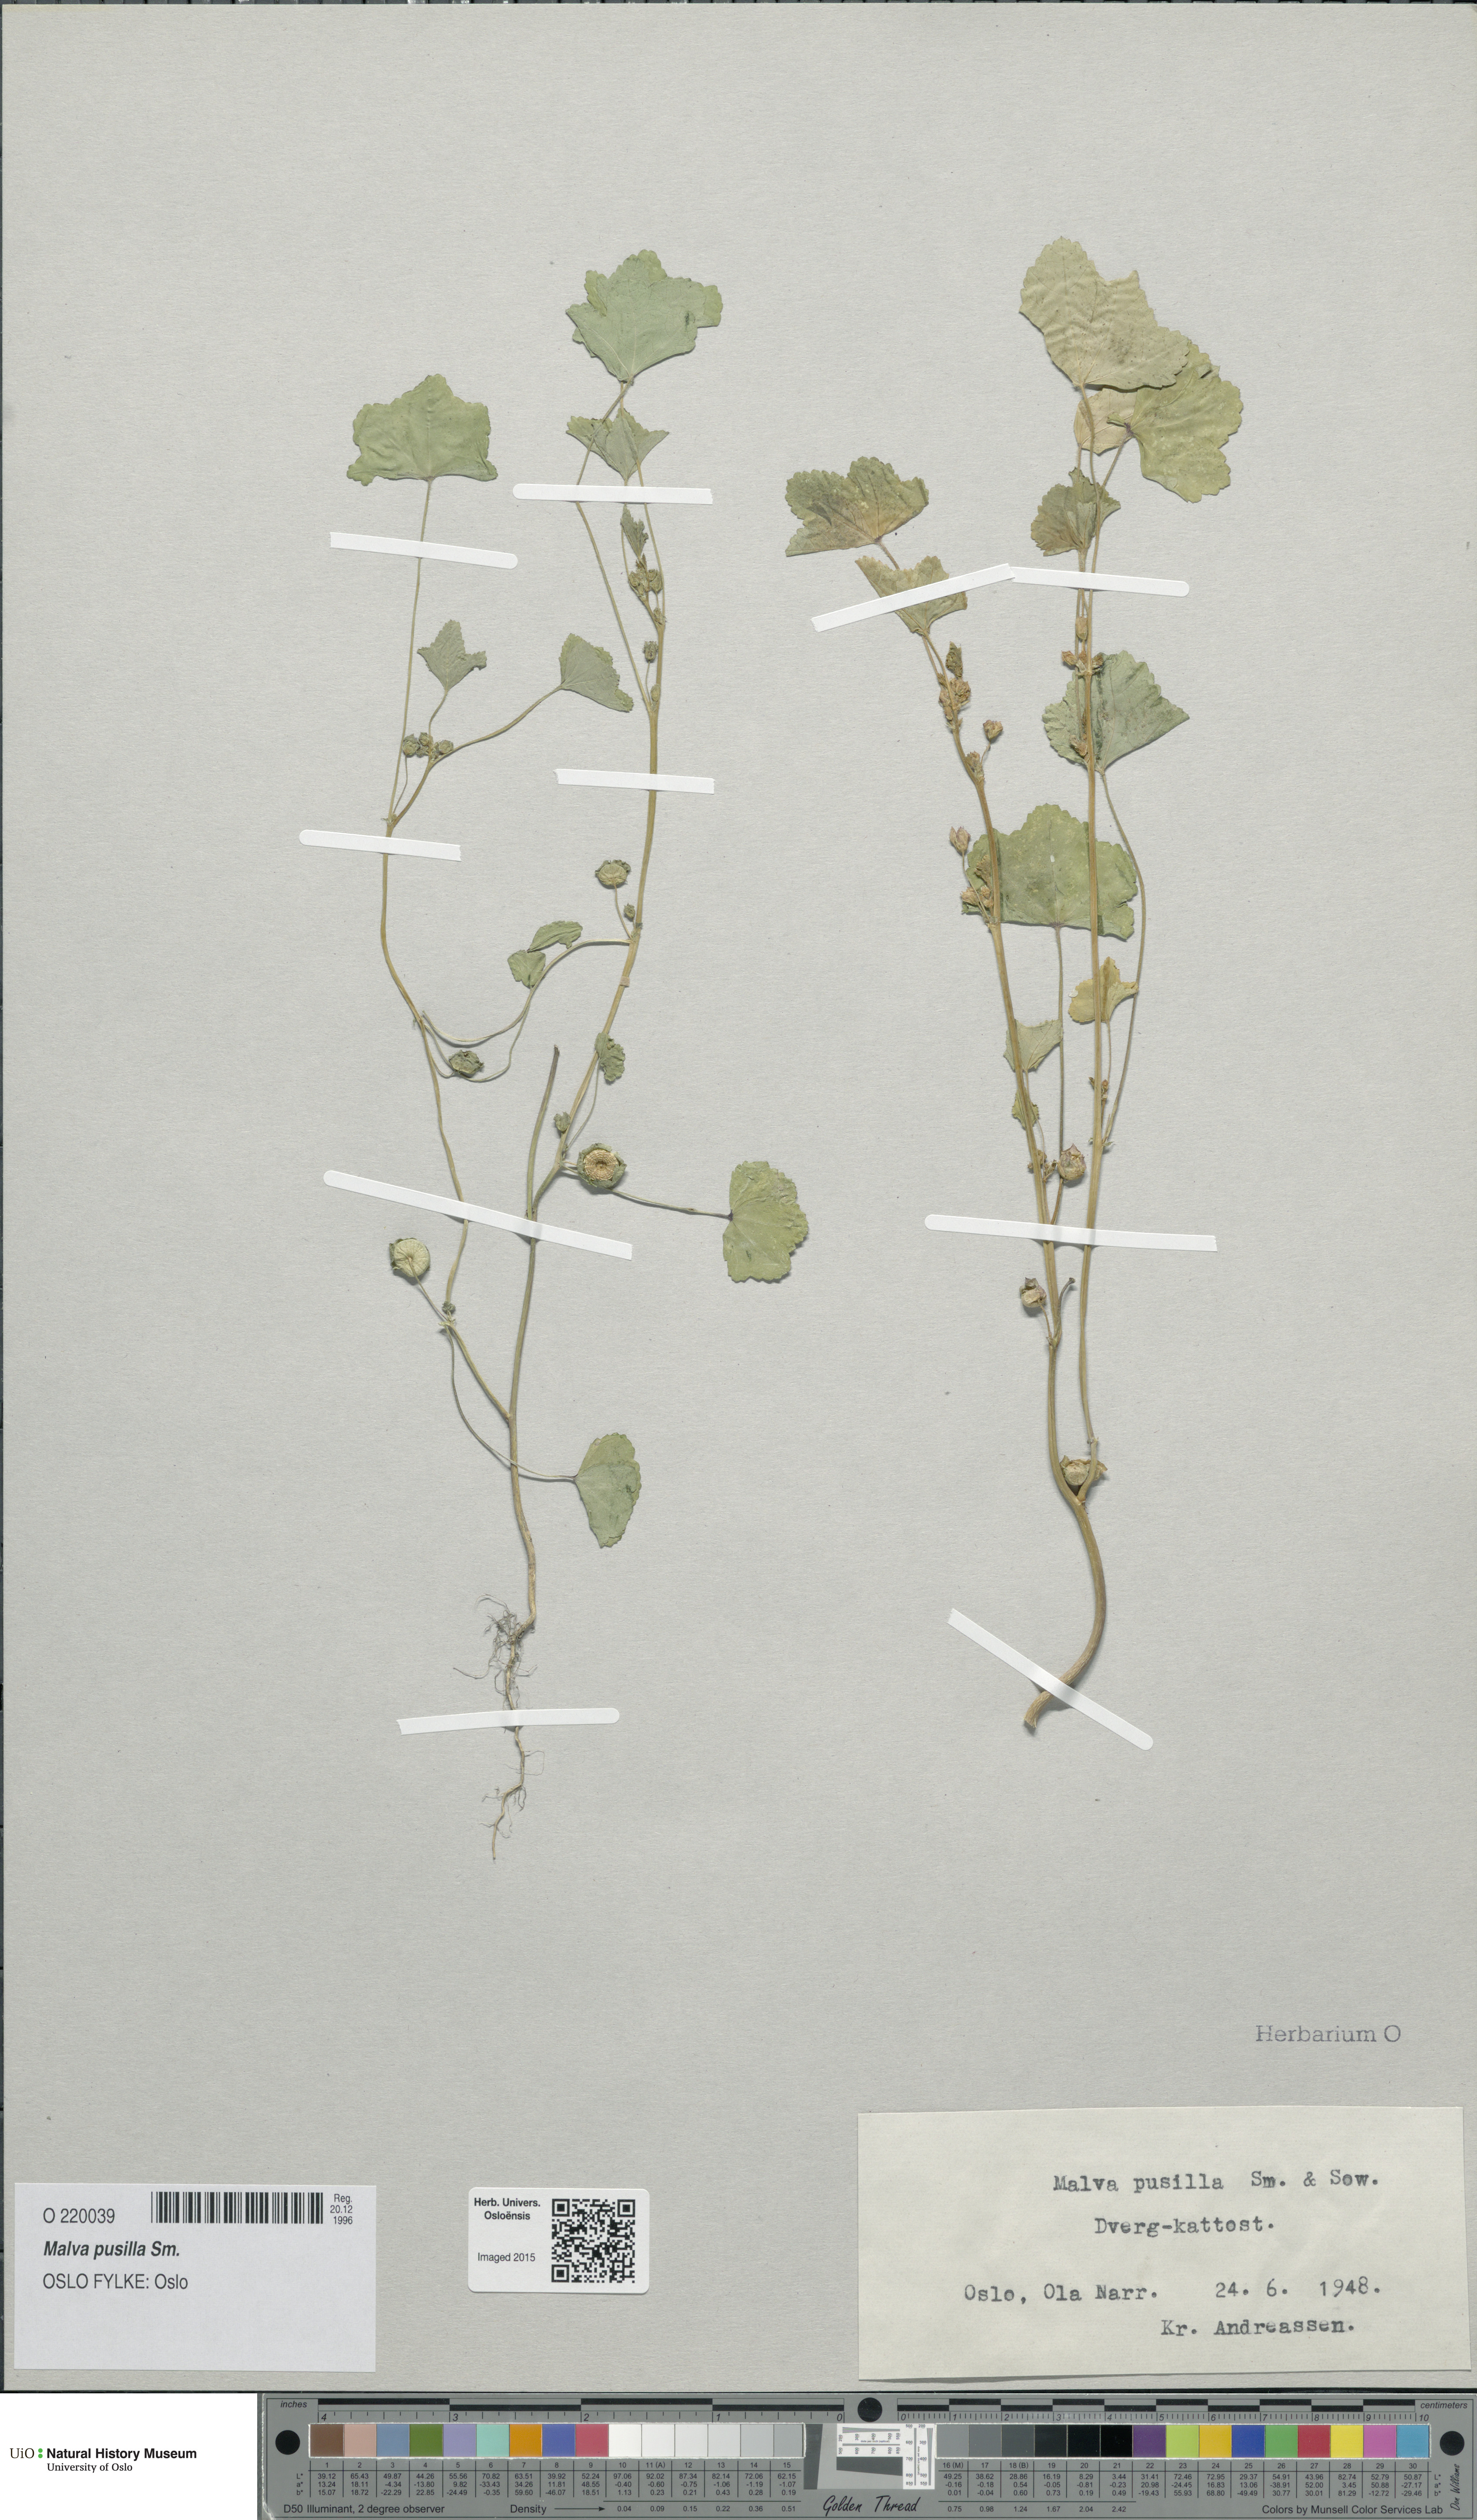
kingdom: Plantae
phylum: Tracheophyta
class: Magnoliopsida
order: Malvales
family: Malvaceae
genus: Malva
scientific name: Malva pusilla
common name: Small mallow
